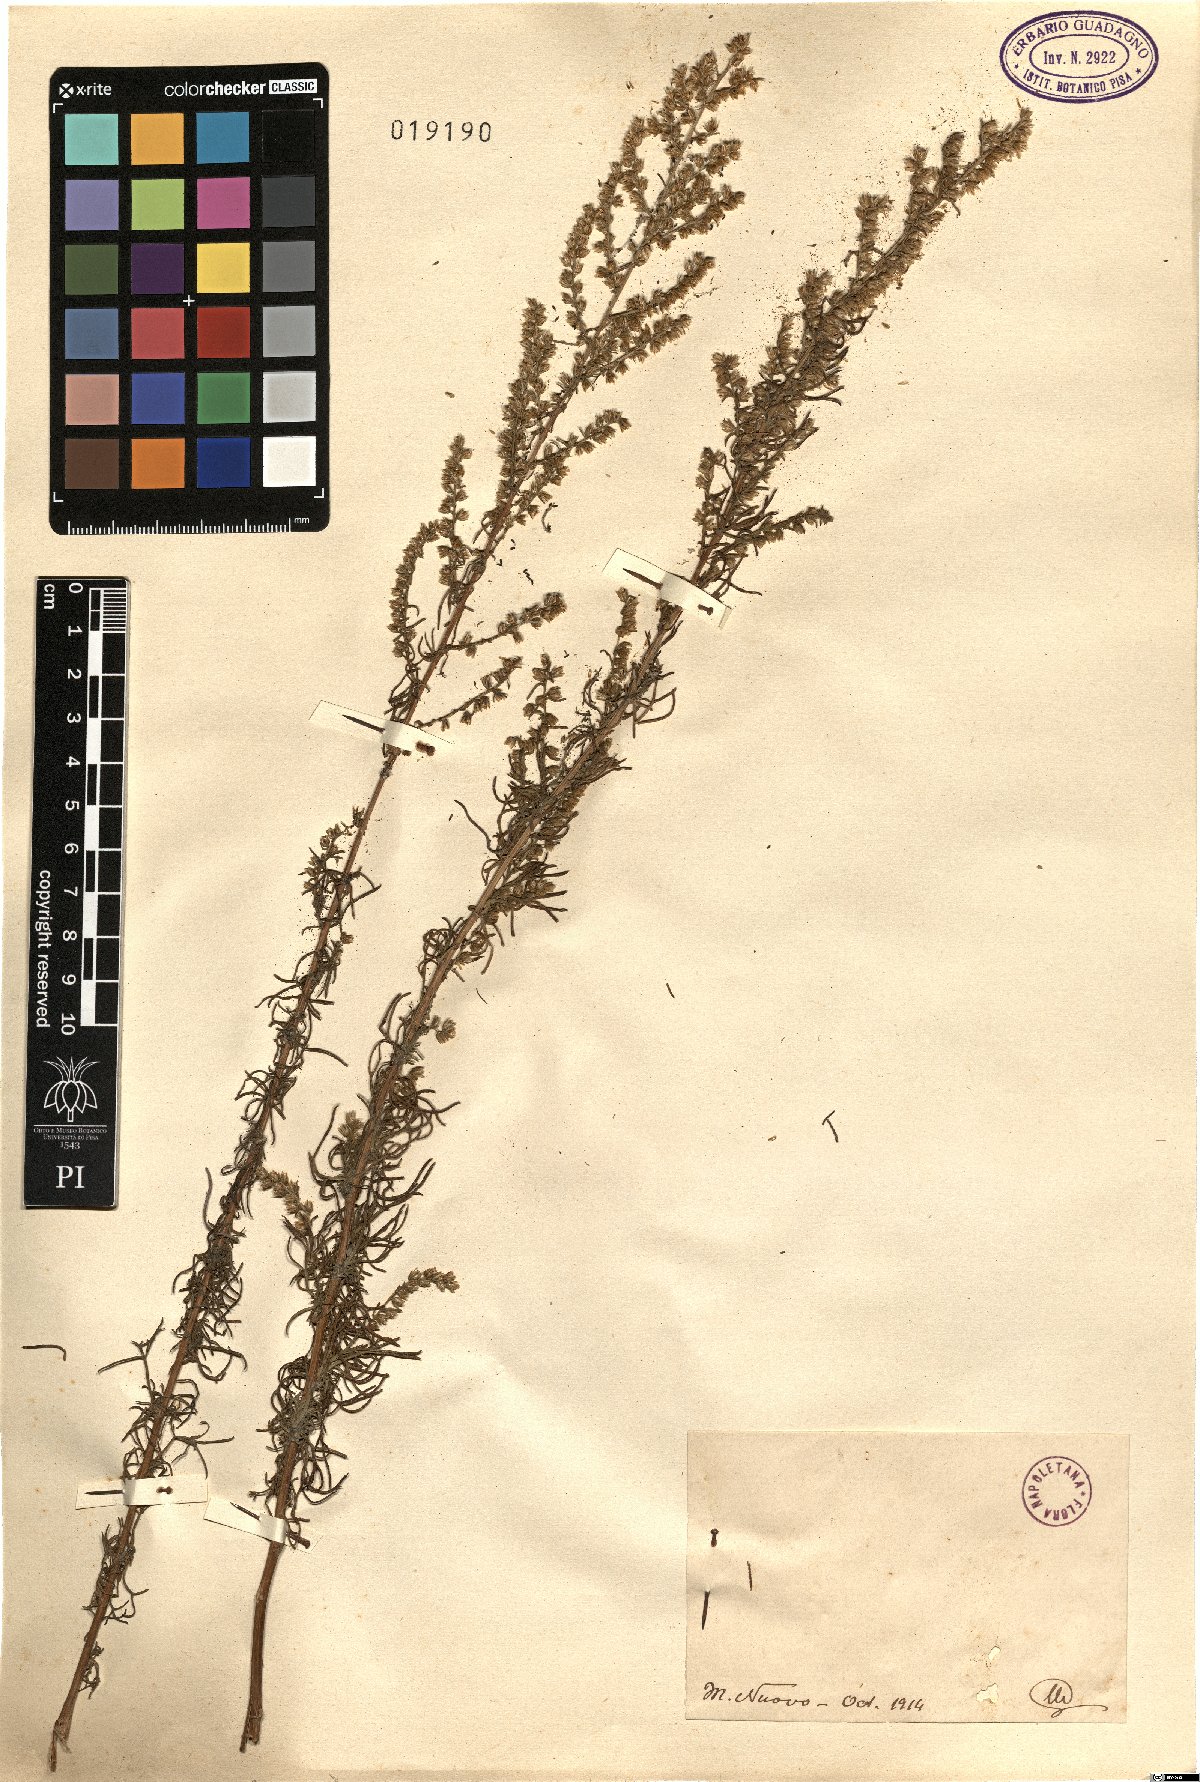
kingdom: Plantae
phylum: Tracheophyta
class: Magnoliopsida
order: Asterales
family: Asteraceae
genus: Artemisia
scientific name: Artemisia
